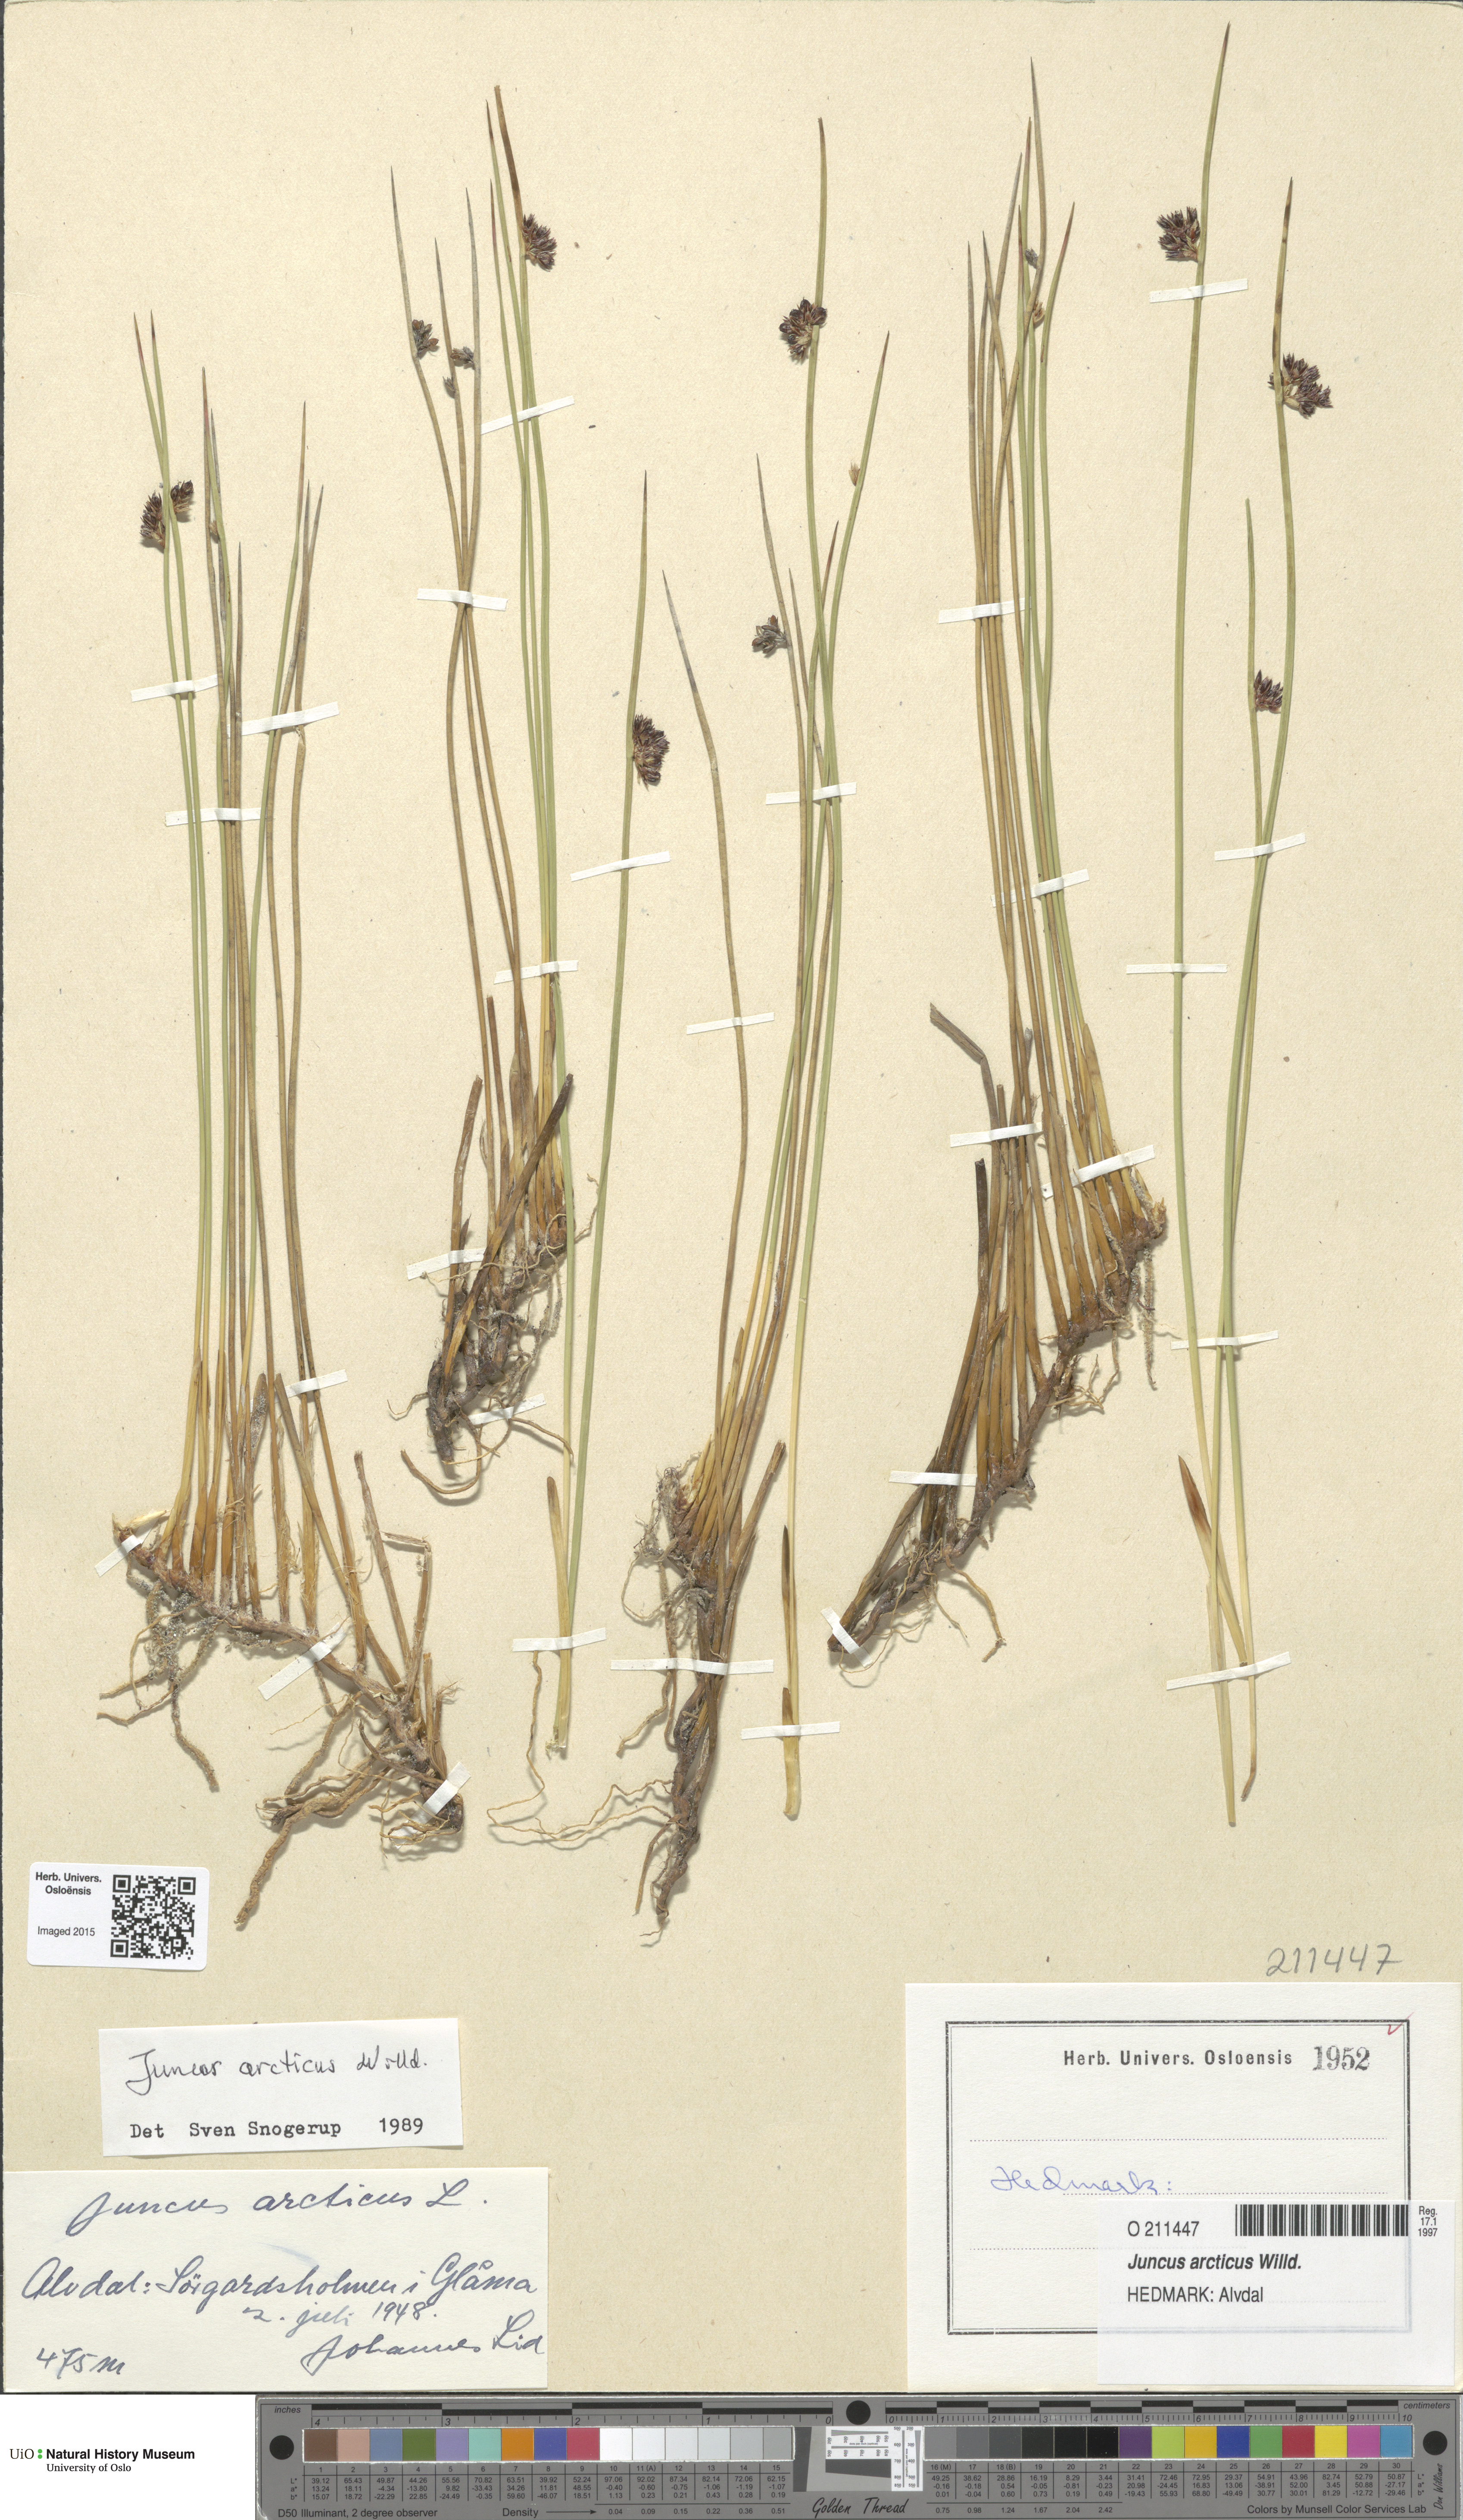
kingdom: Plantae
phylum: Tracheophyta
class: Liliopsida
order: Poales
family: Juncaceae
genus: Juncus
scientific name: Juncus arcticus
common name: Arctic rush
